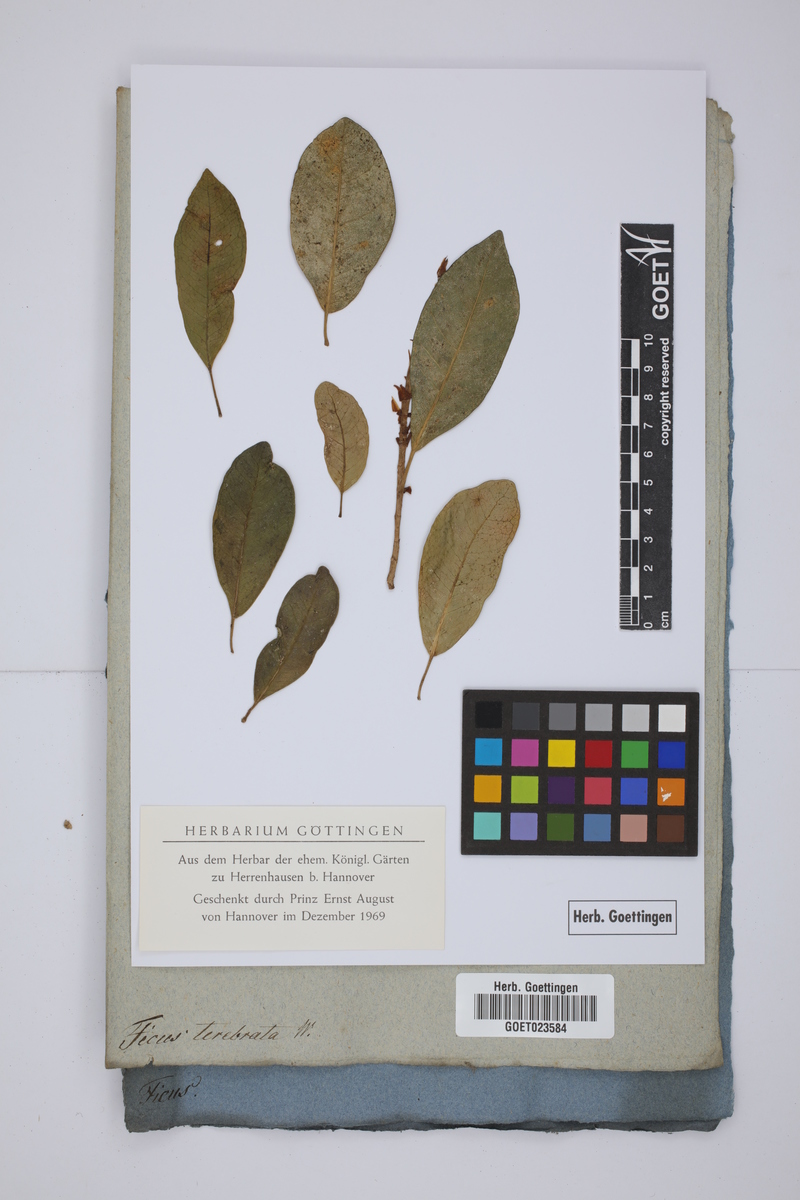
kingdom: Plantae
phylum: Tracheophyta
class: Magnoliopsida
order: Rosales
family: Moraceae
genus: Ficus
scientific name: Ficus reflexa
